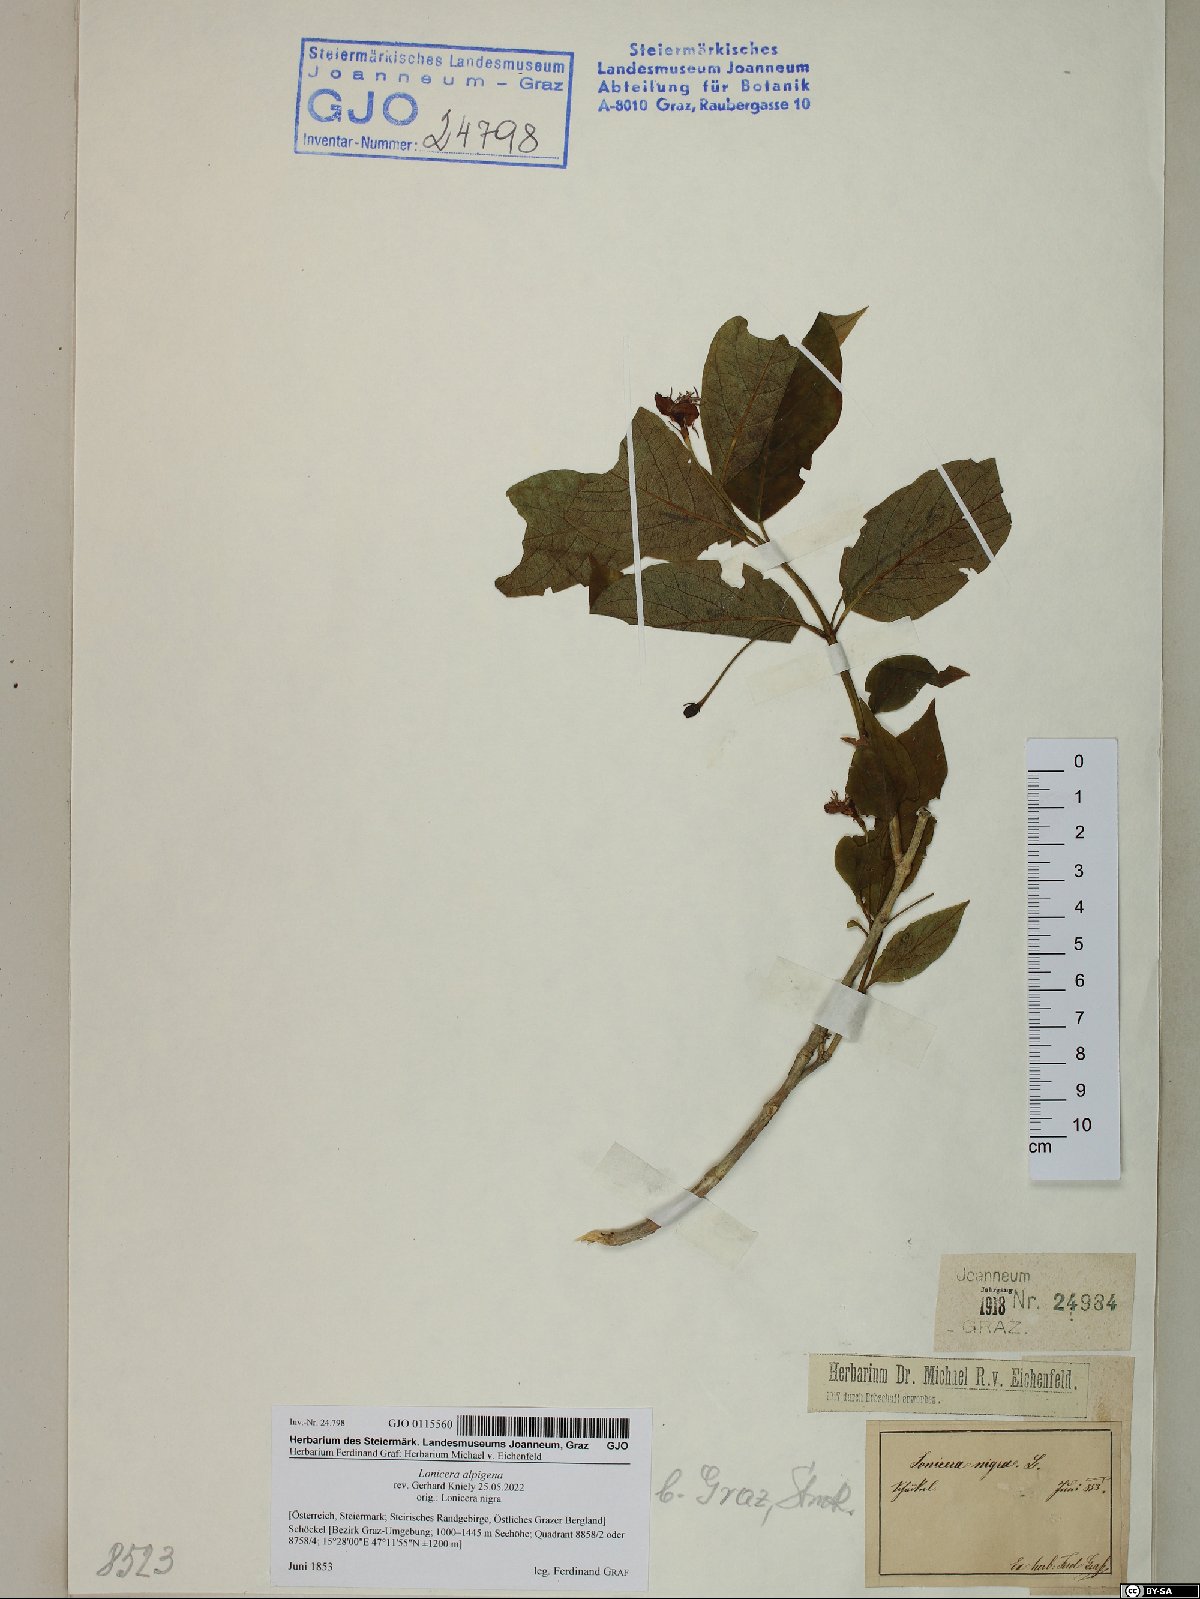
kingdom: Plantae
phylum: Tracheophyta
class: Magnoliopsida
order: Dipsacales
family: Caprifoliaceae
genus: Lonicera
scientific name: Lonicera alpigena
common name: Alpine honeysuckle
